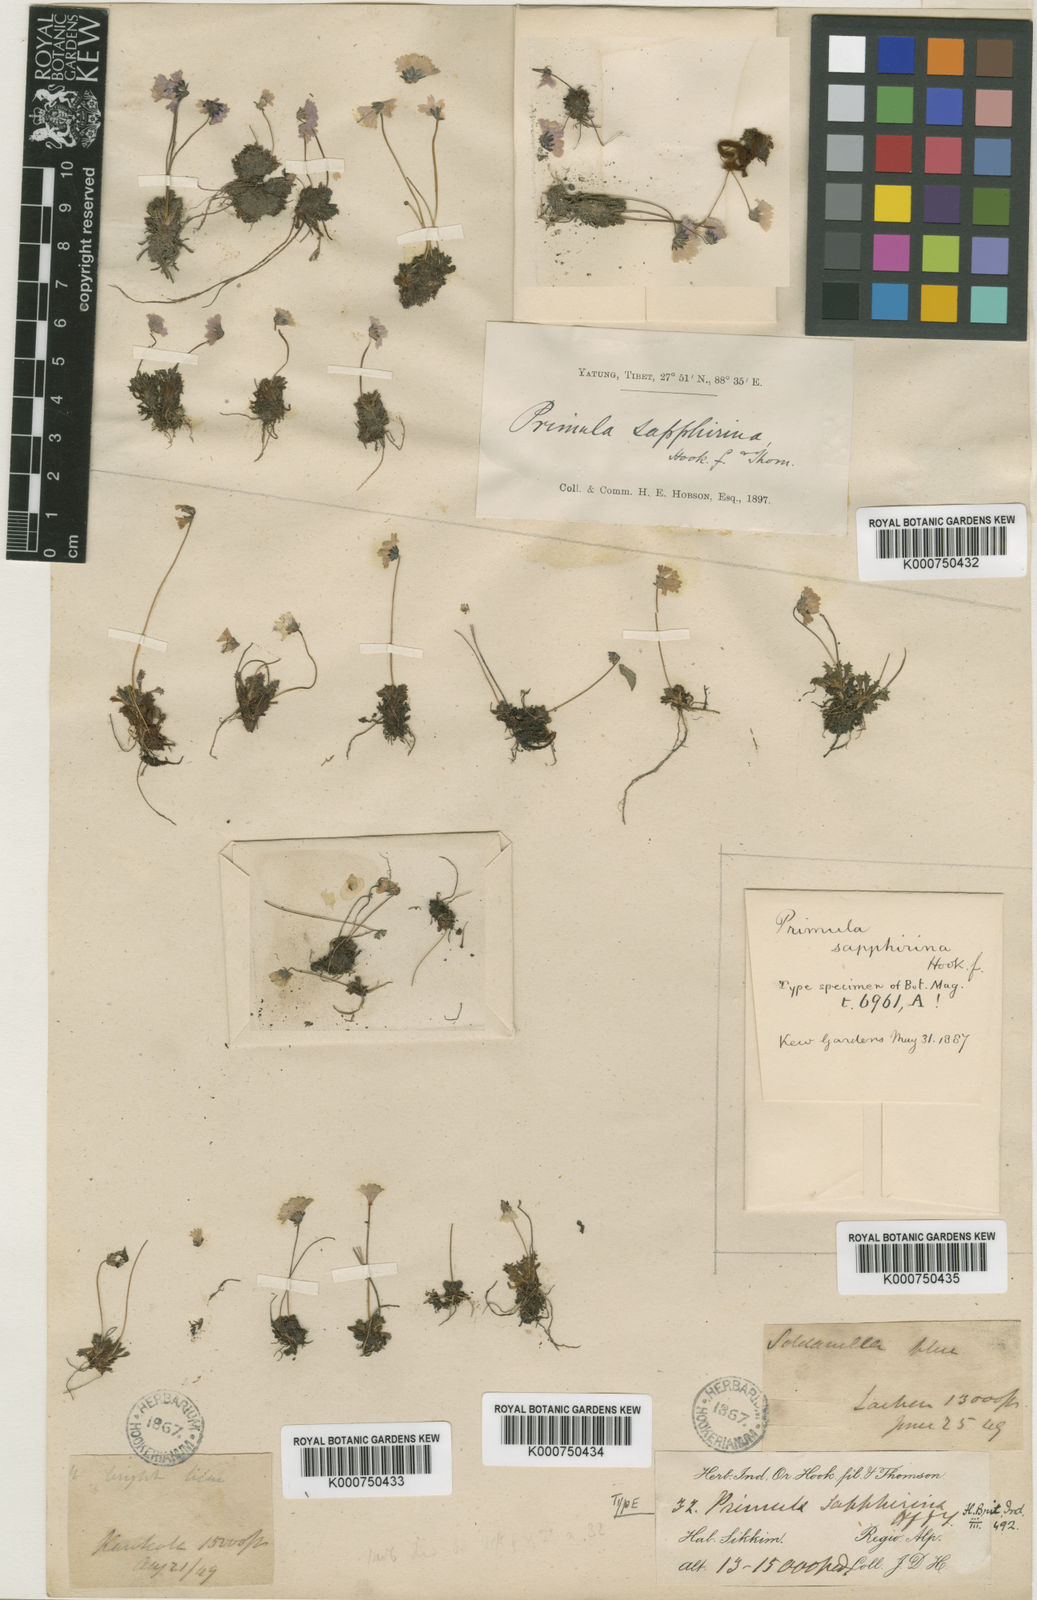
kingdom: Plantae
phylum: Tracheophyta
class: Magnoliopsida
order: Ericales
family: Primulaceae
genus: Primula
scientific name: Primula sapphirina
